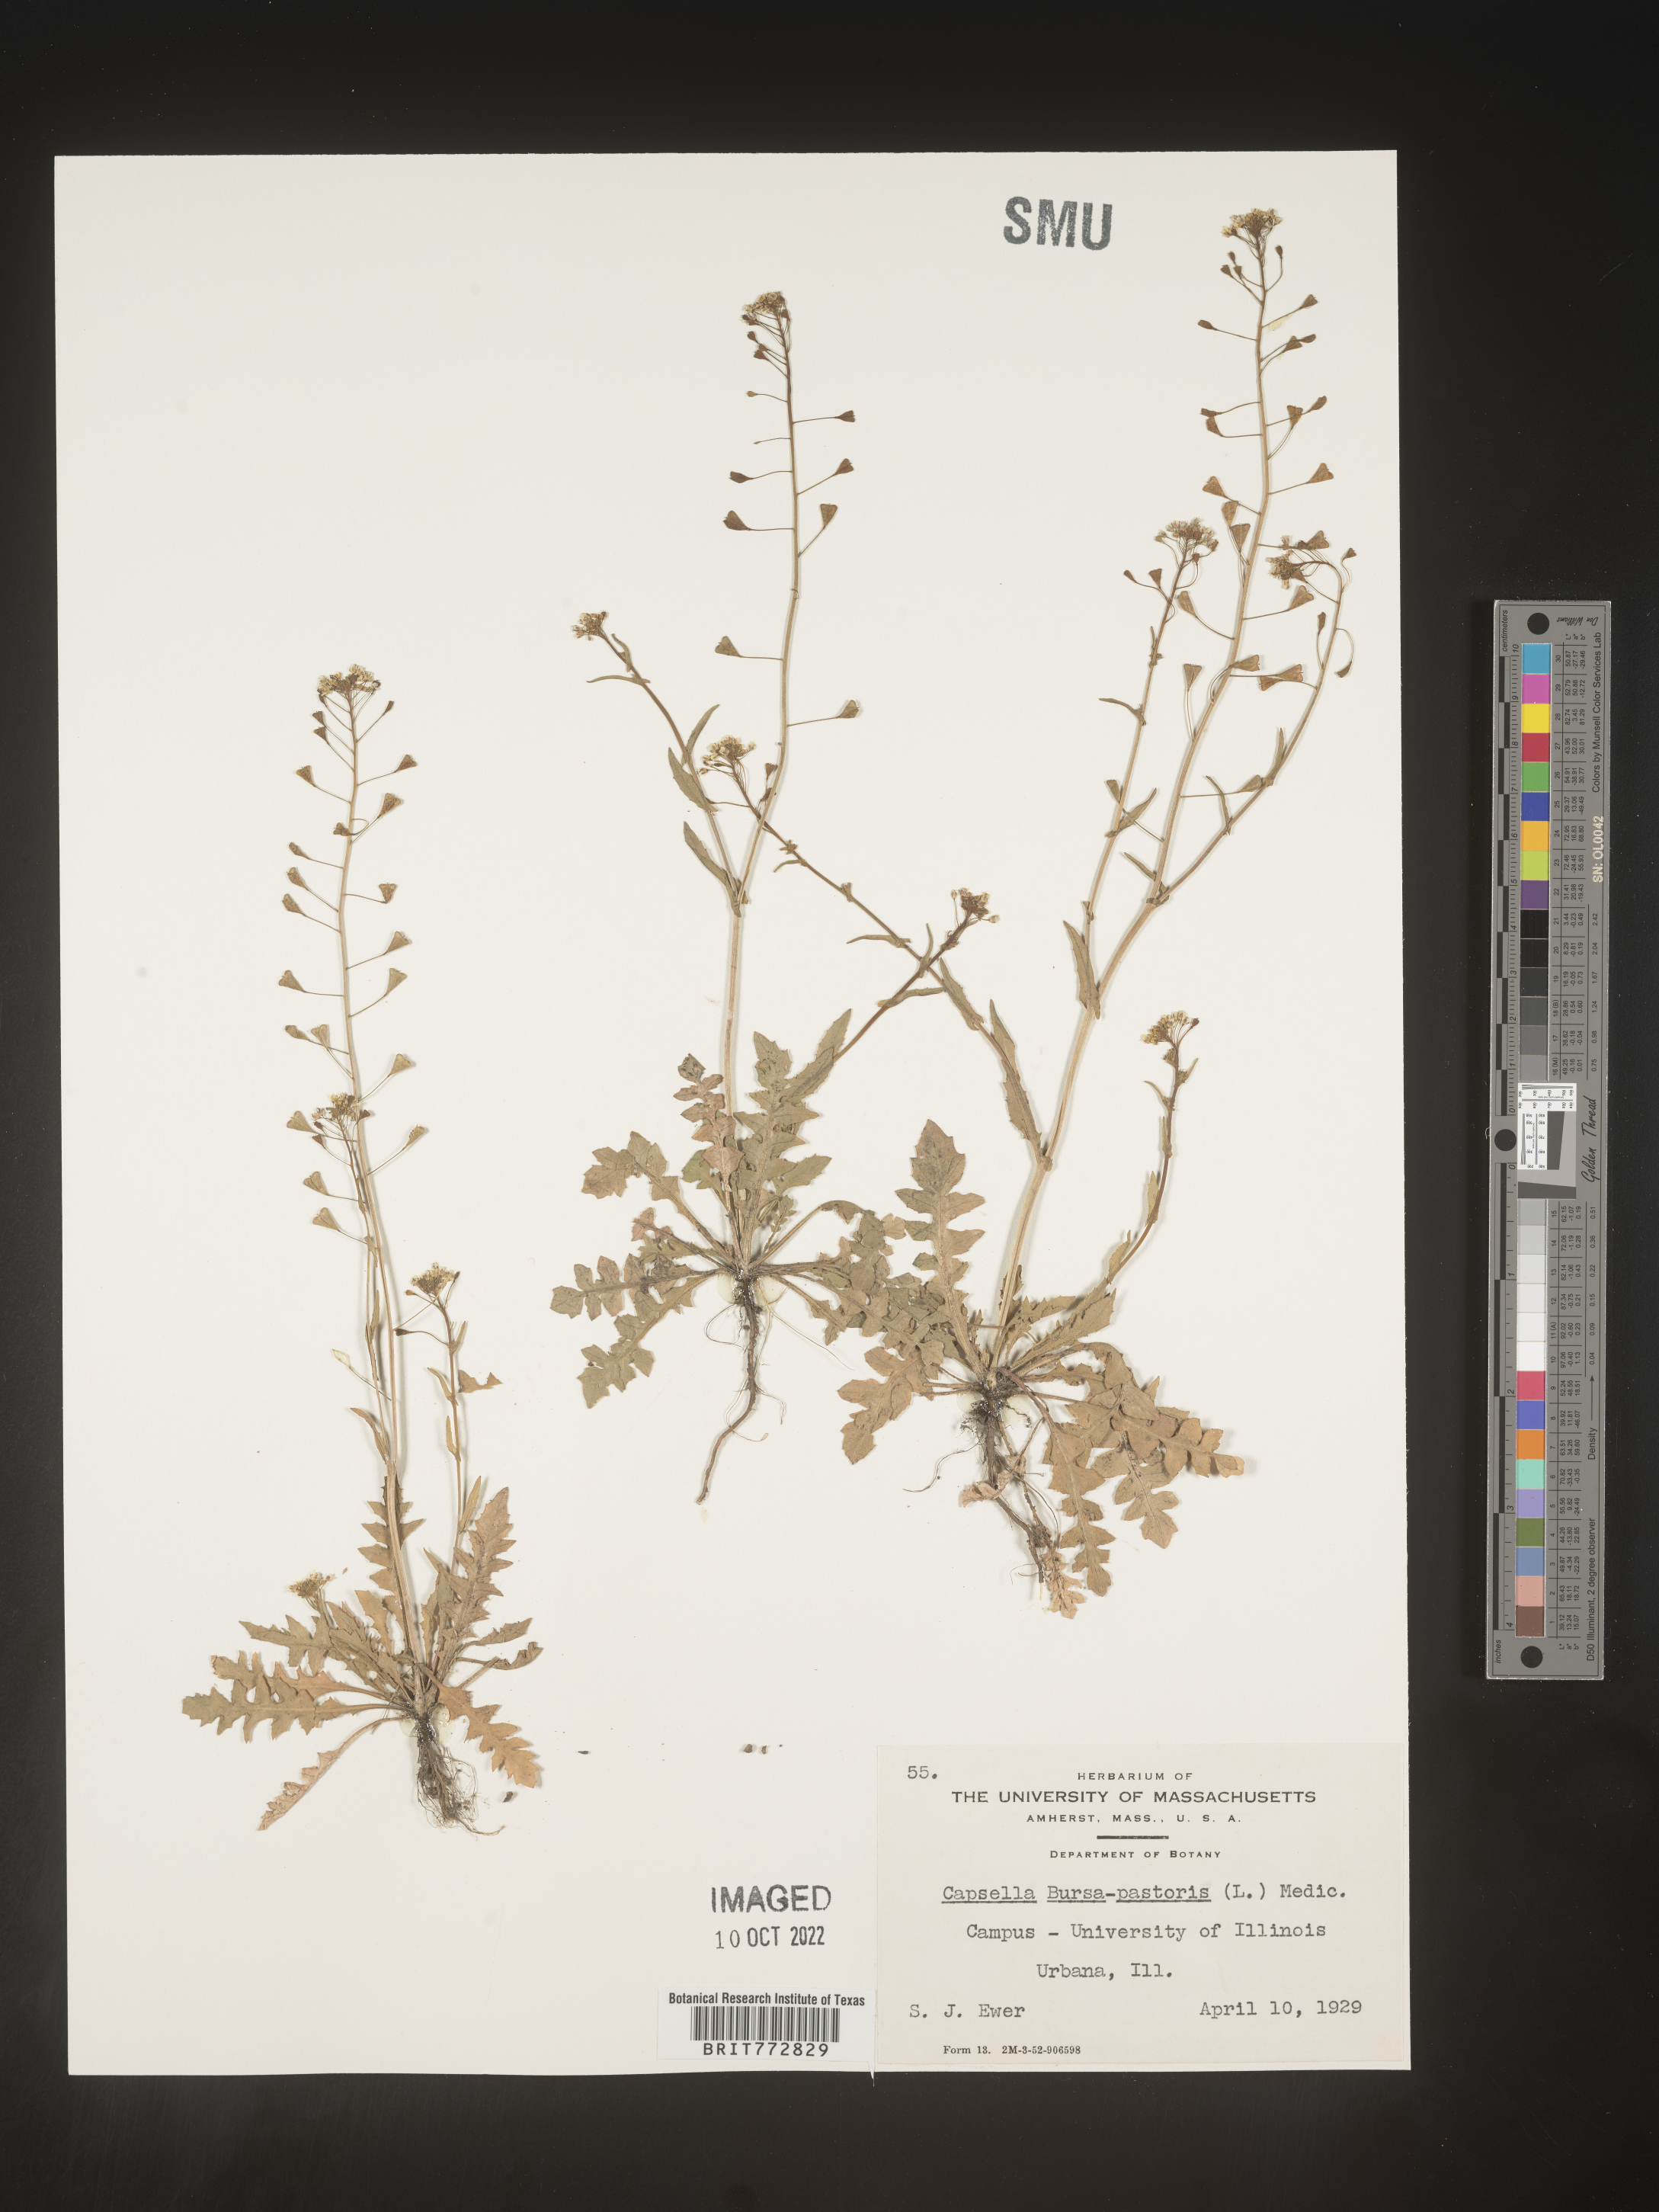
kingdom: Plantae
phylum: Tracheophyta
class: Magnoliopsida
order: Brassicales
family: Brassicaceae
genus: Capsella
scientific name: Capsella bursa-pastoris
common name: Shepherd's purse
